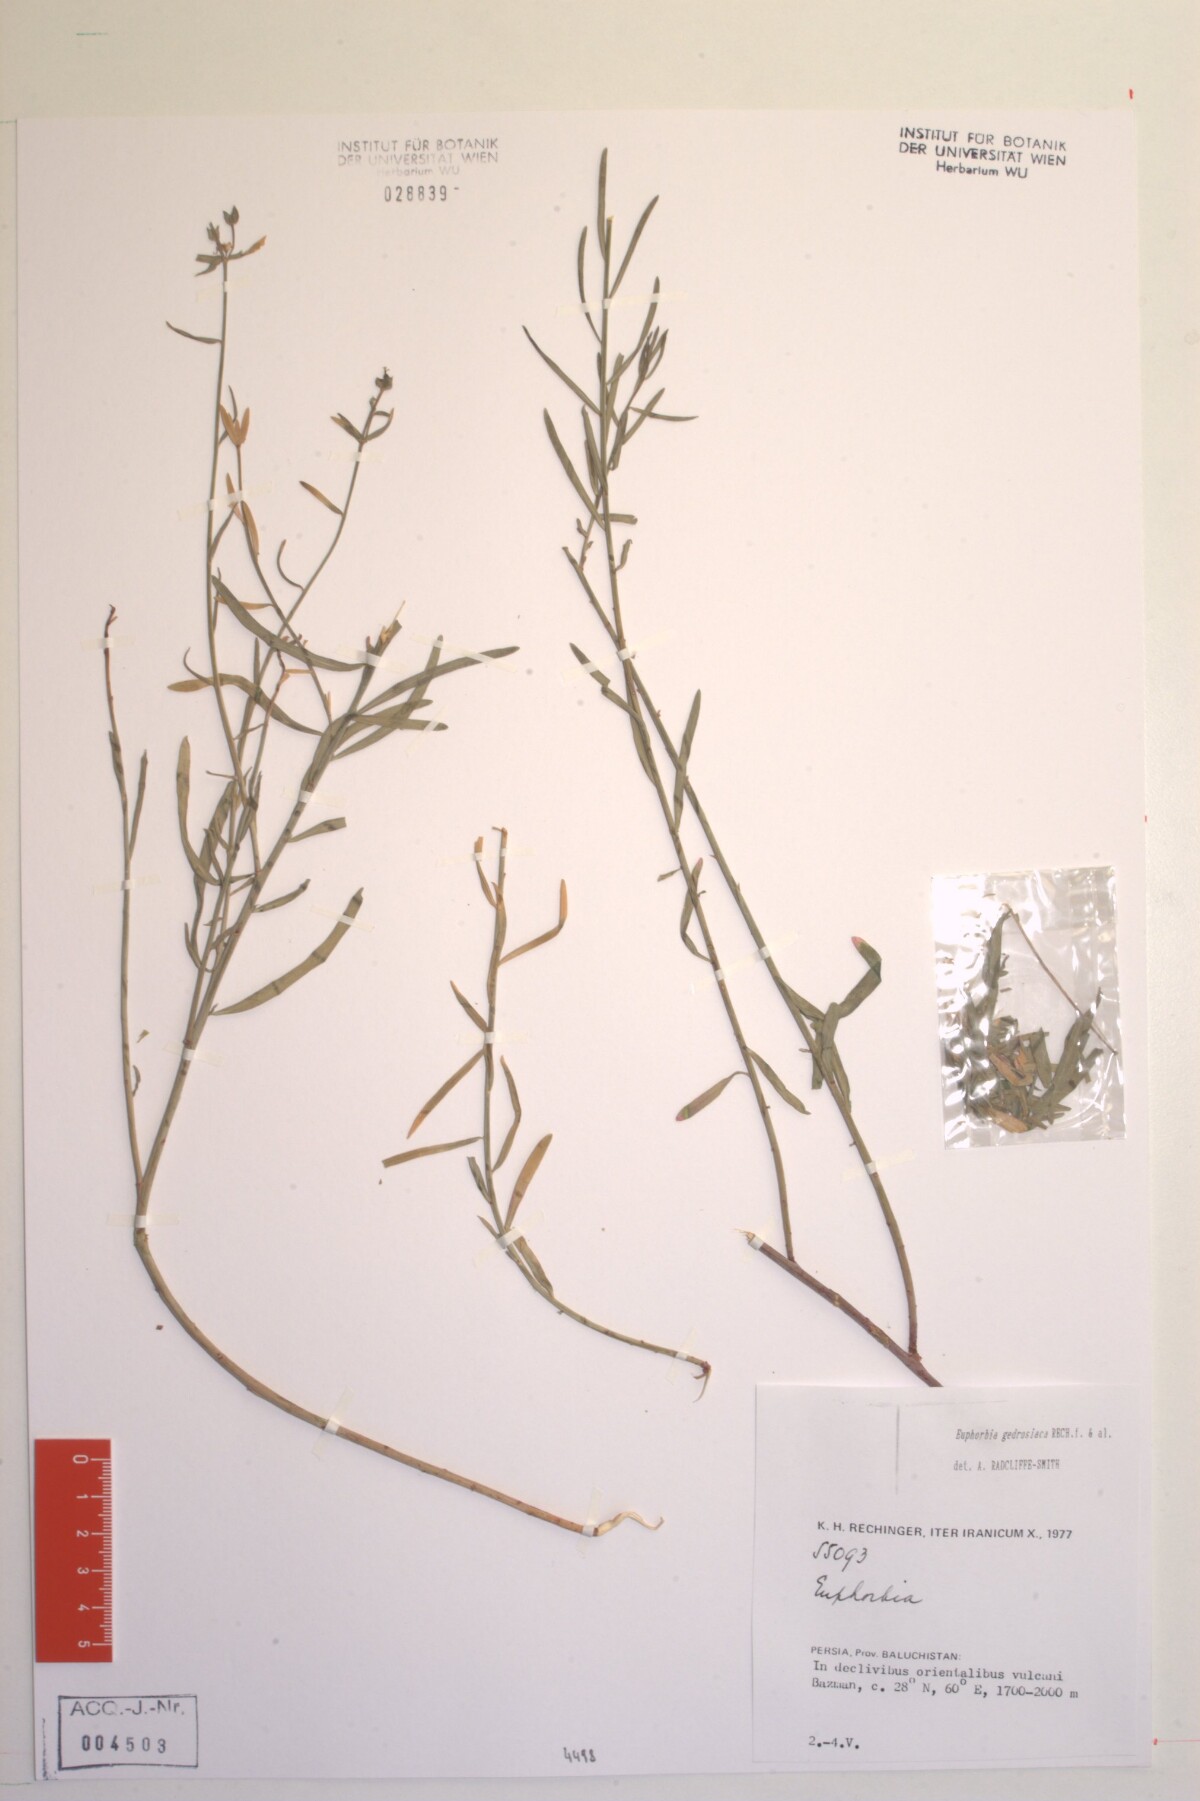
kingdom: Plantae
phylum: Tracheophyta
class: Magnoliopsida
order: Malpighiales
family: Euphorbiaceae
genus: Euphorbia
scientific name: Euphorbia gedrosiaca
